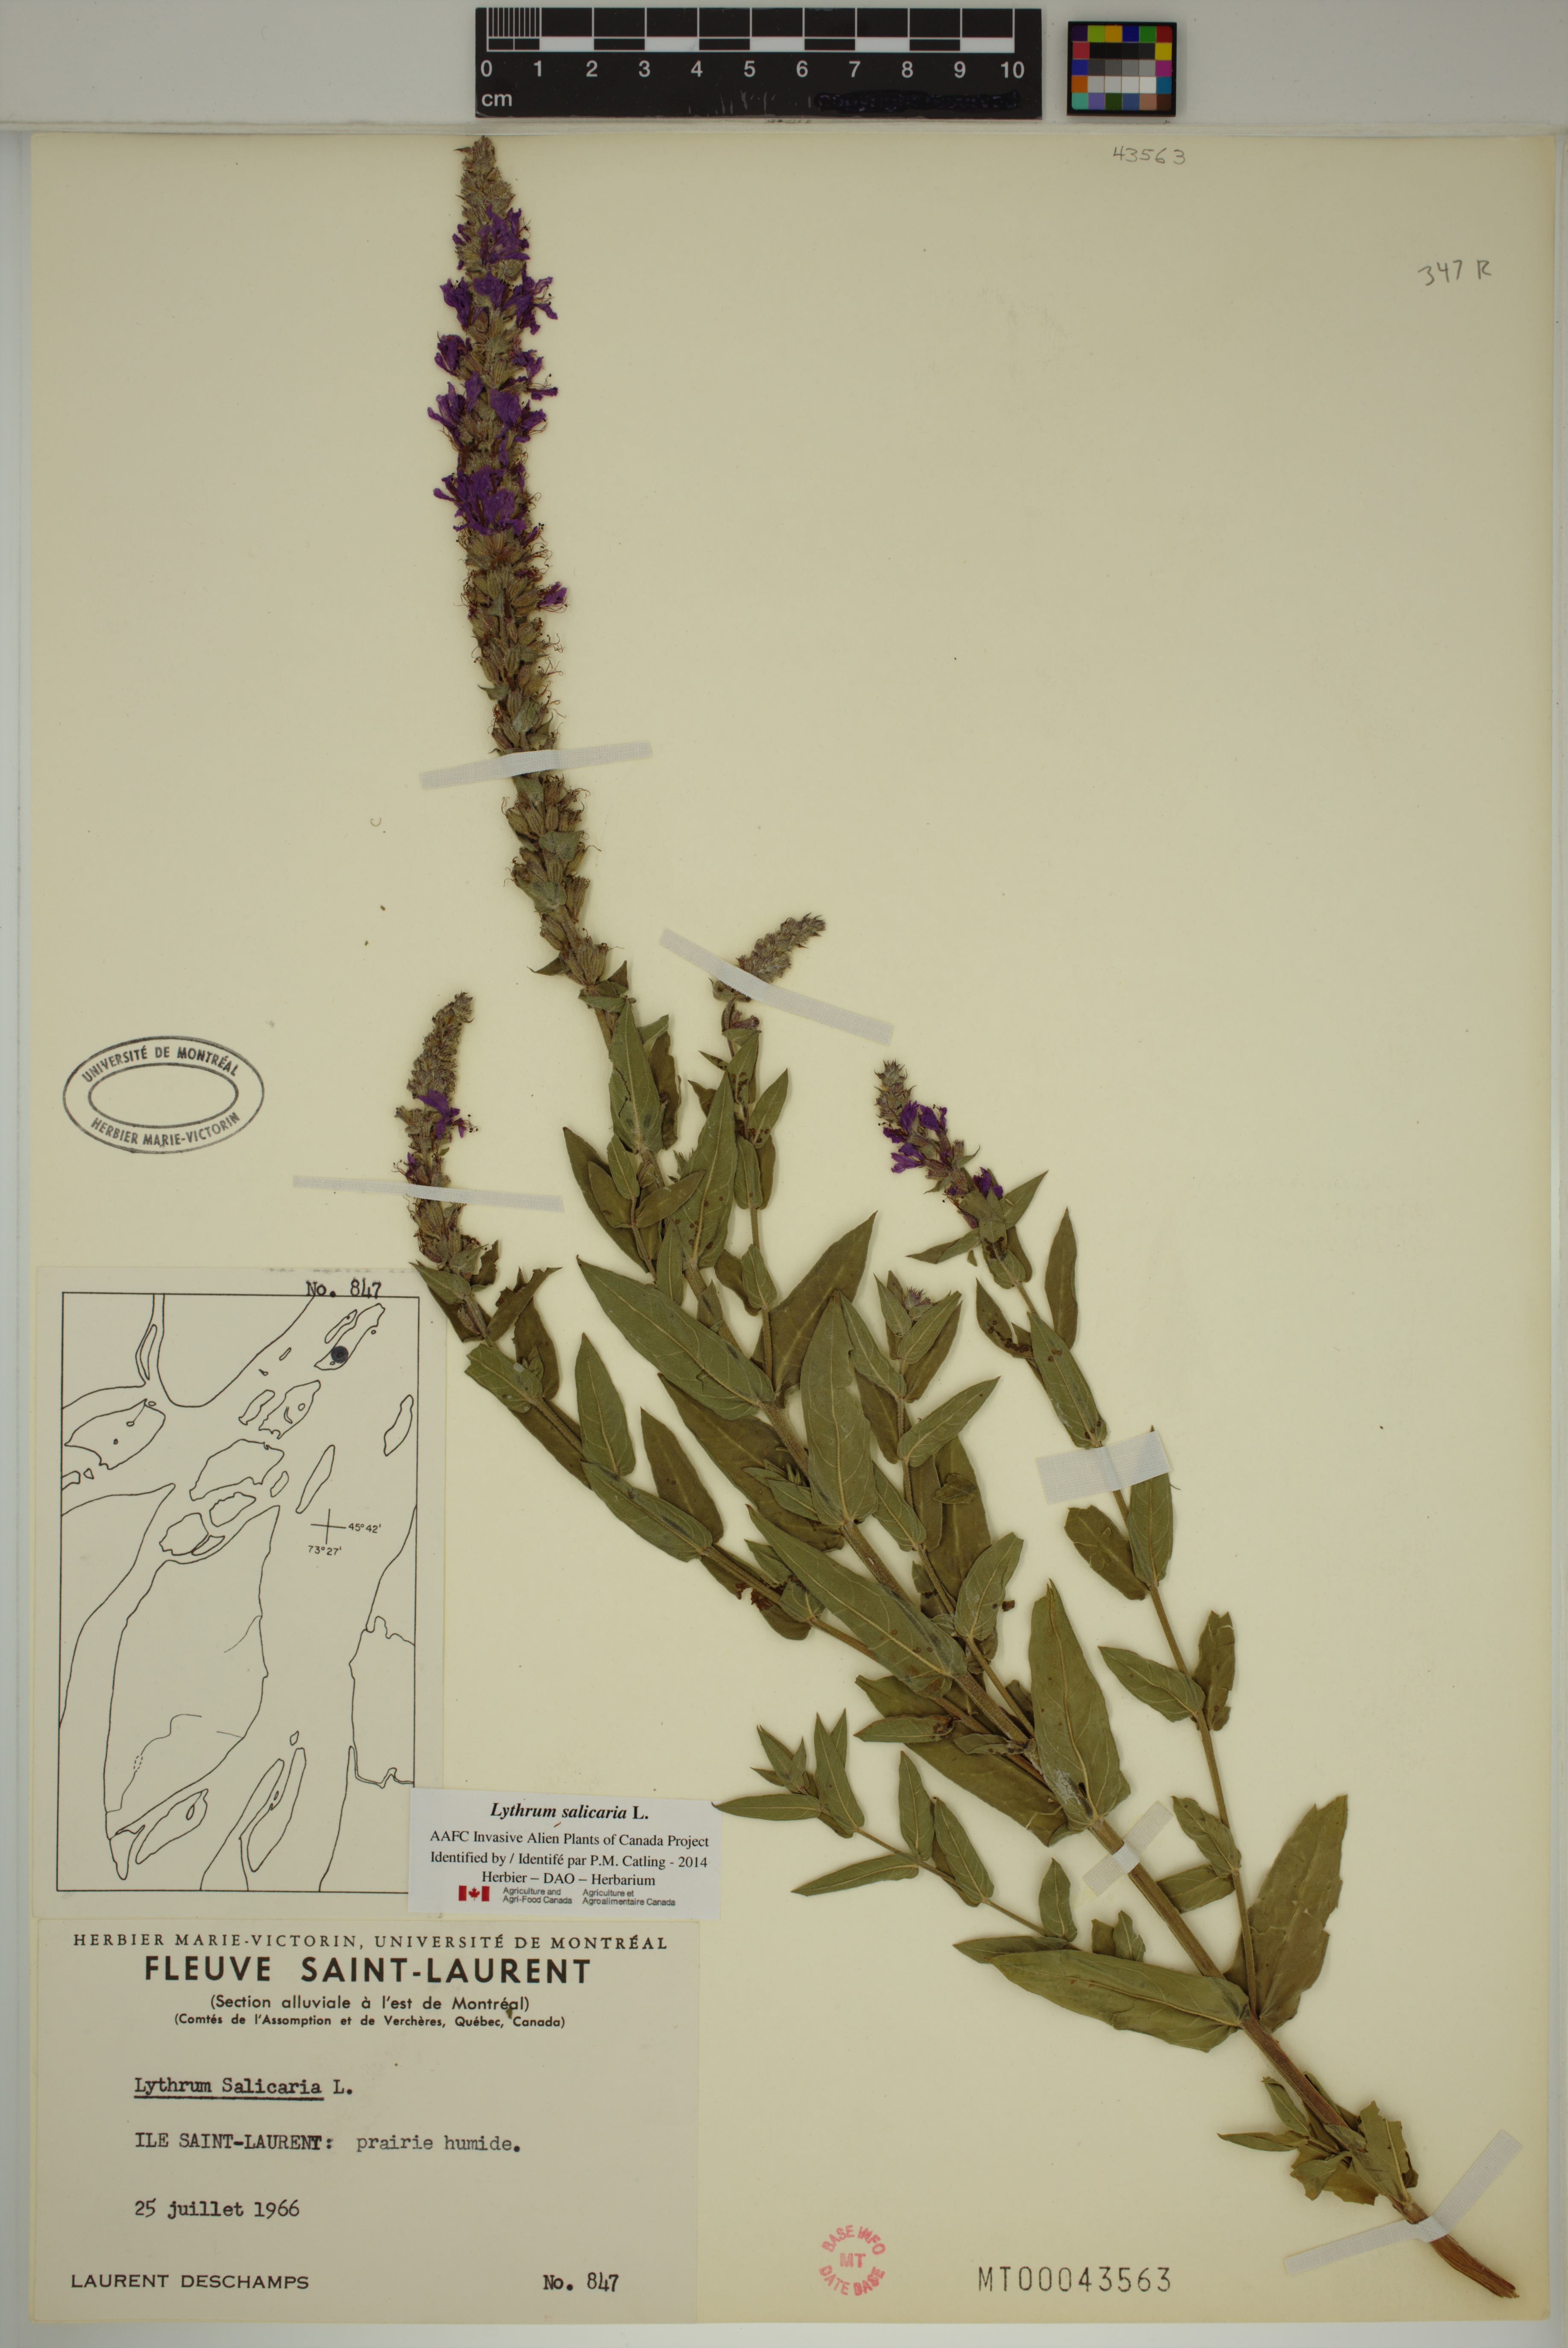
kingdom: Plantae
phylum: Tracheophyta
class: Magnoliopsida
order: Myrtales
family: Lythraceae
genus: Lythrum
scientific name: Lythrum salicaria
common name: Purple loosestrife
